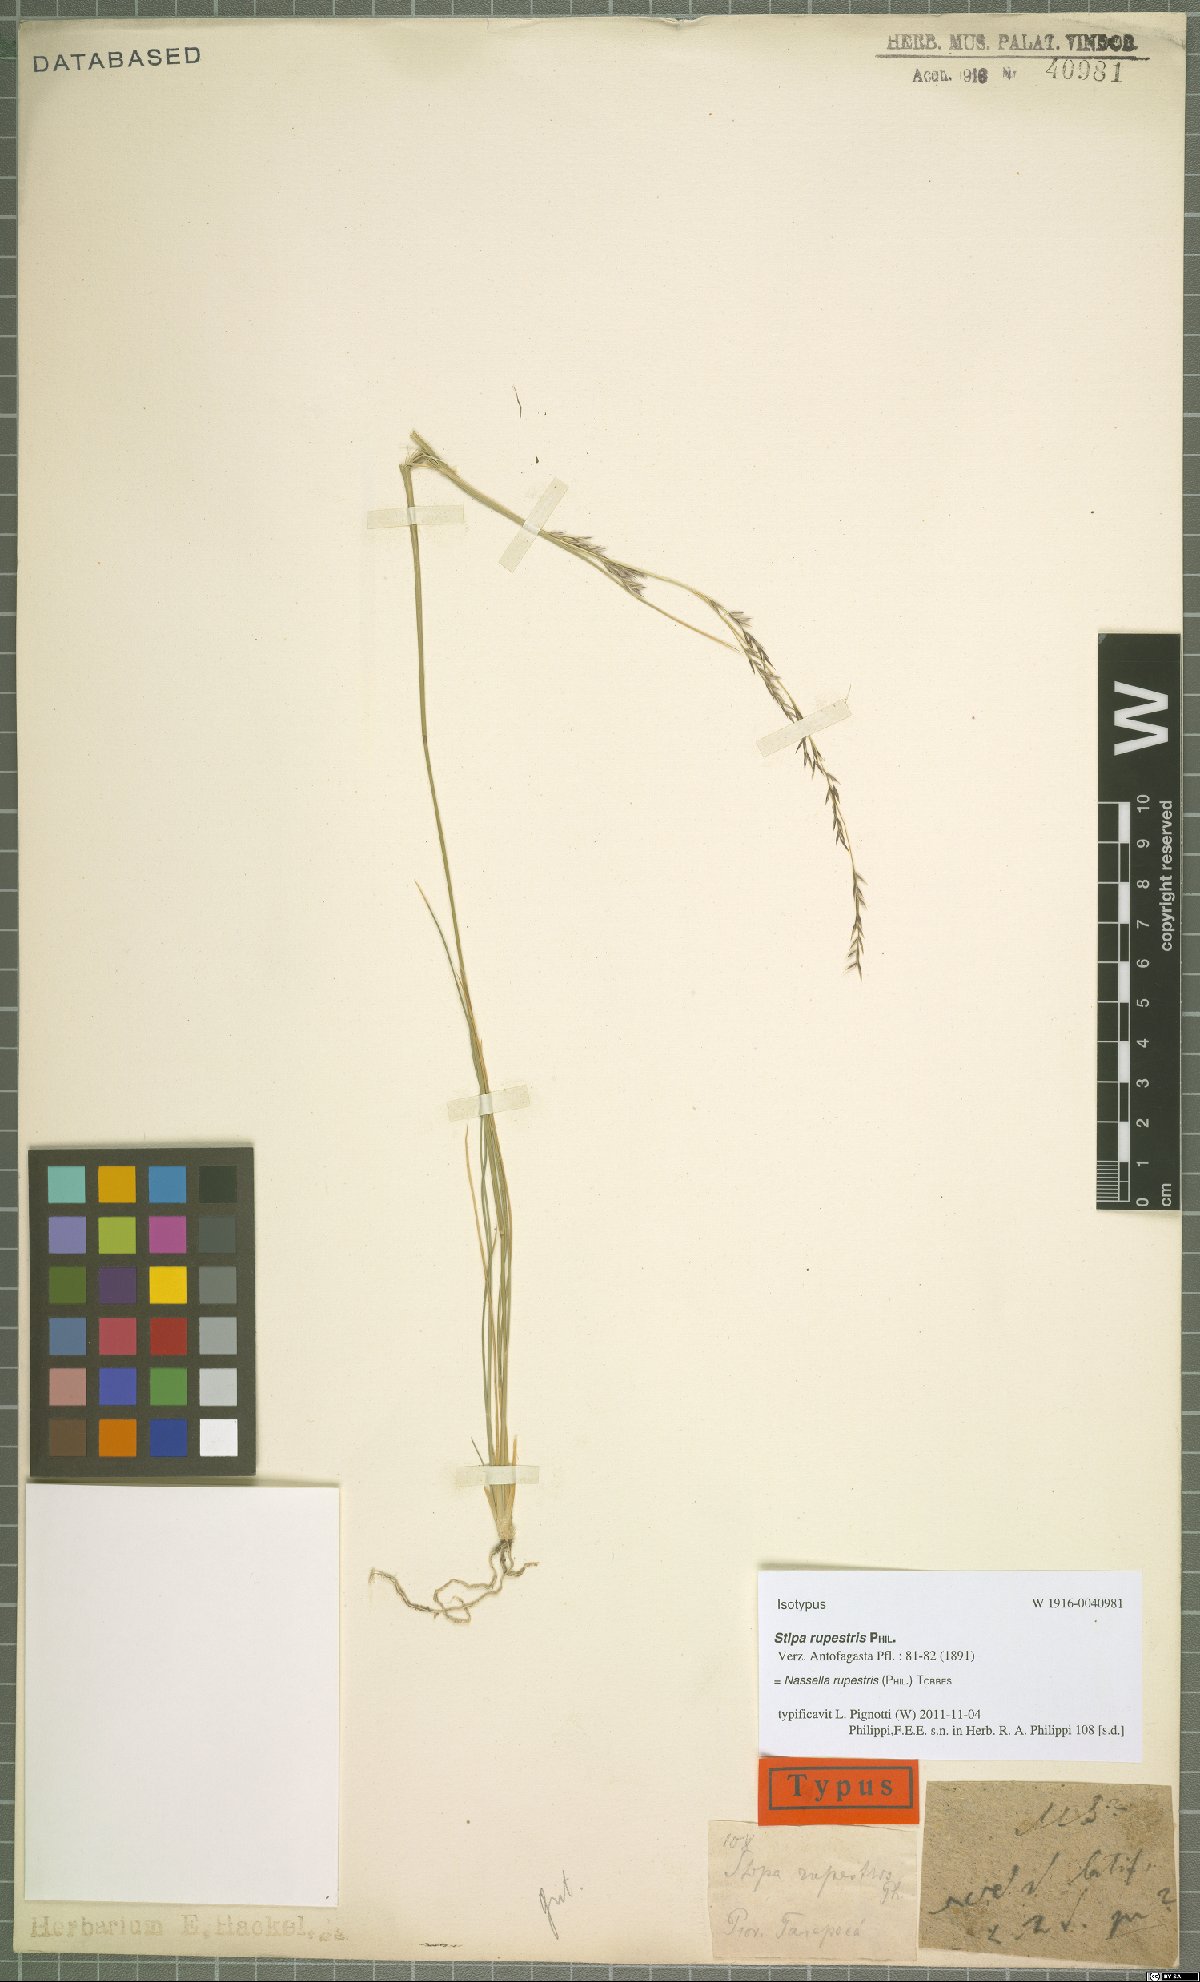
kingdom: Plantae
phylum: Tracheophyta
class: Liliopsida
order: Poales
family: Poaceae
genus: Nassella
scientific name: Nassella rupestris
